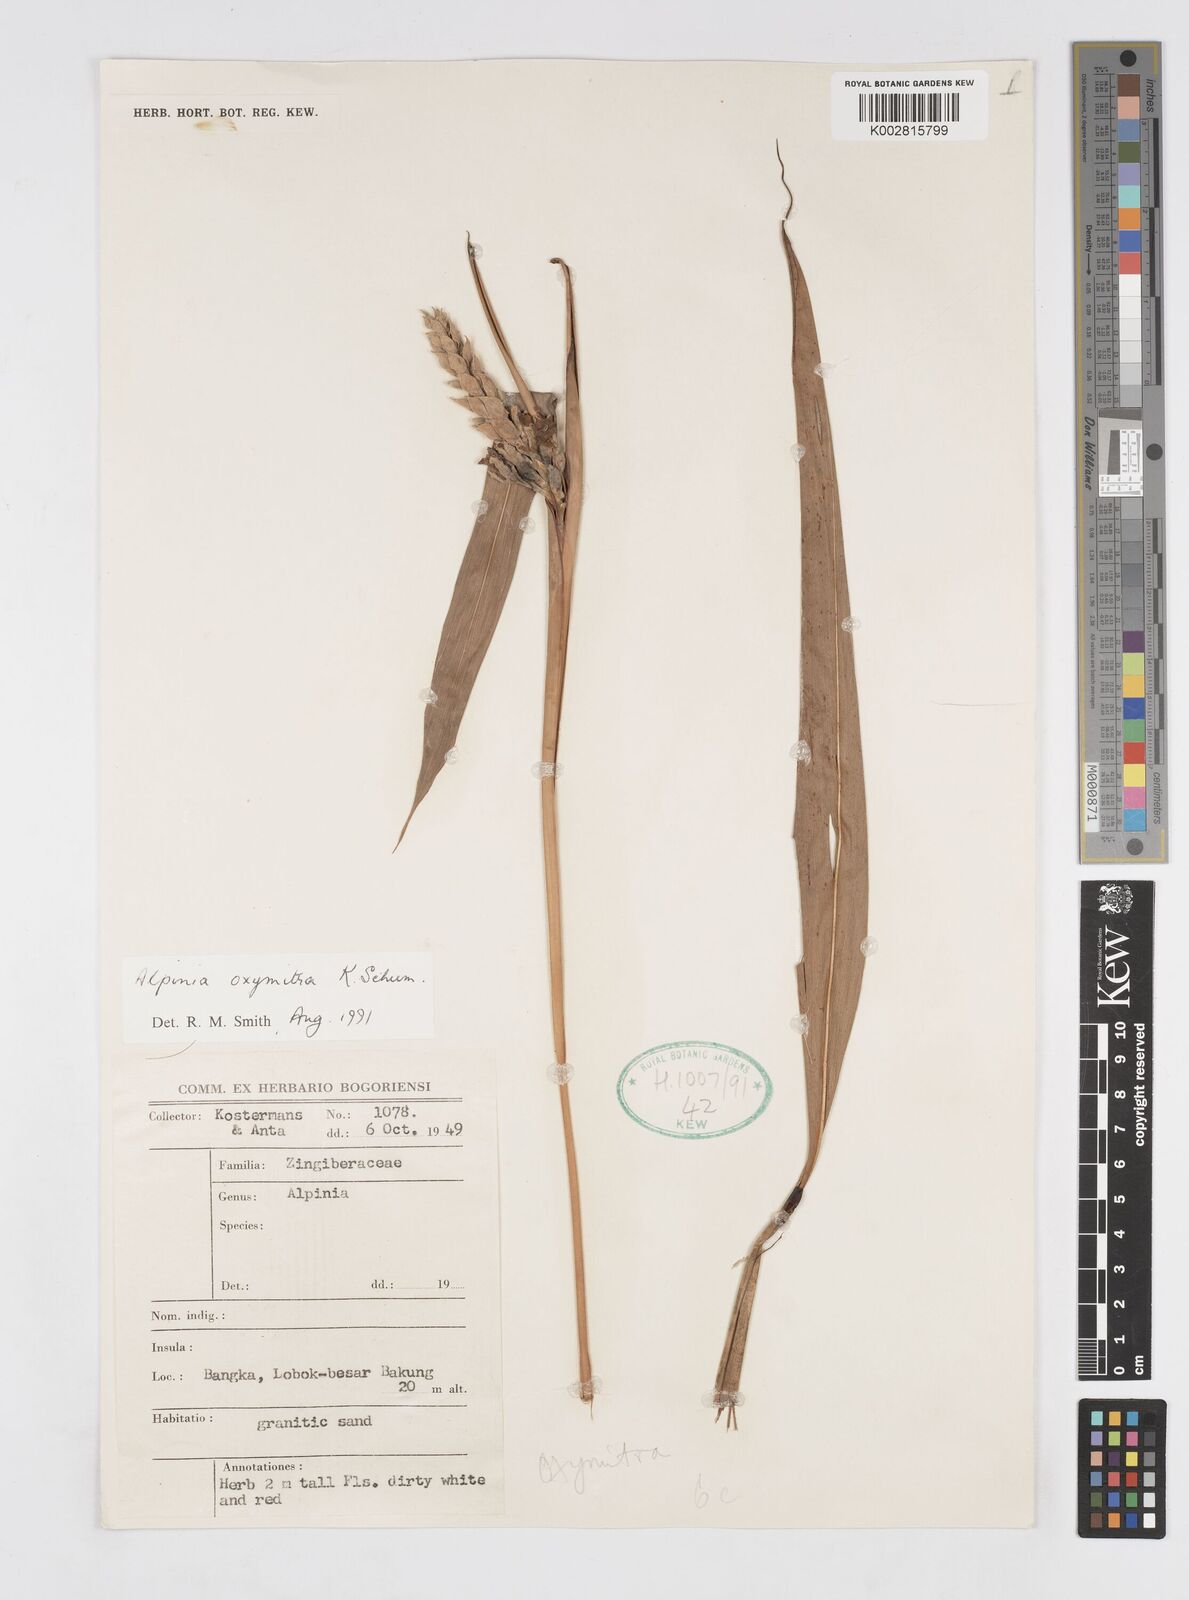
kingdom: Plantae
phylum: Tracheophyta
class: Liliopsida
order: Zingiberales
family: Zingiberaceae
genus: Alpinia
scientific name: Alpinia oxymitra
